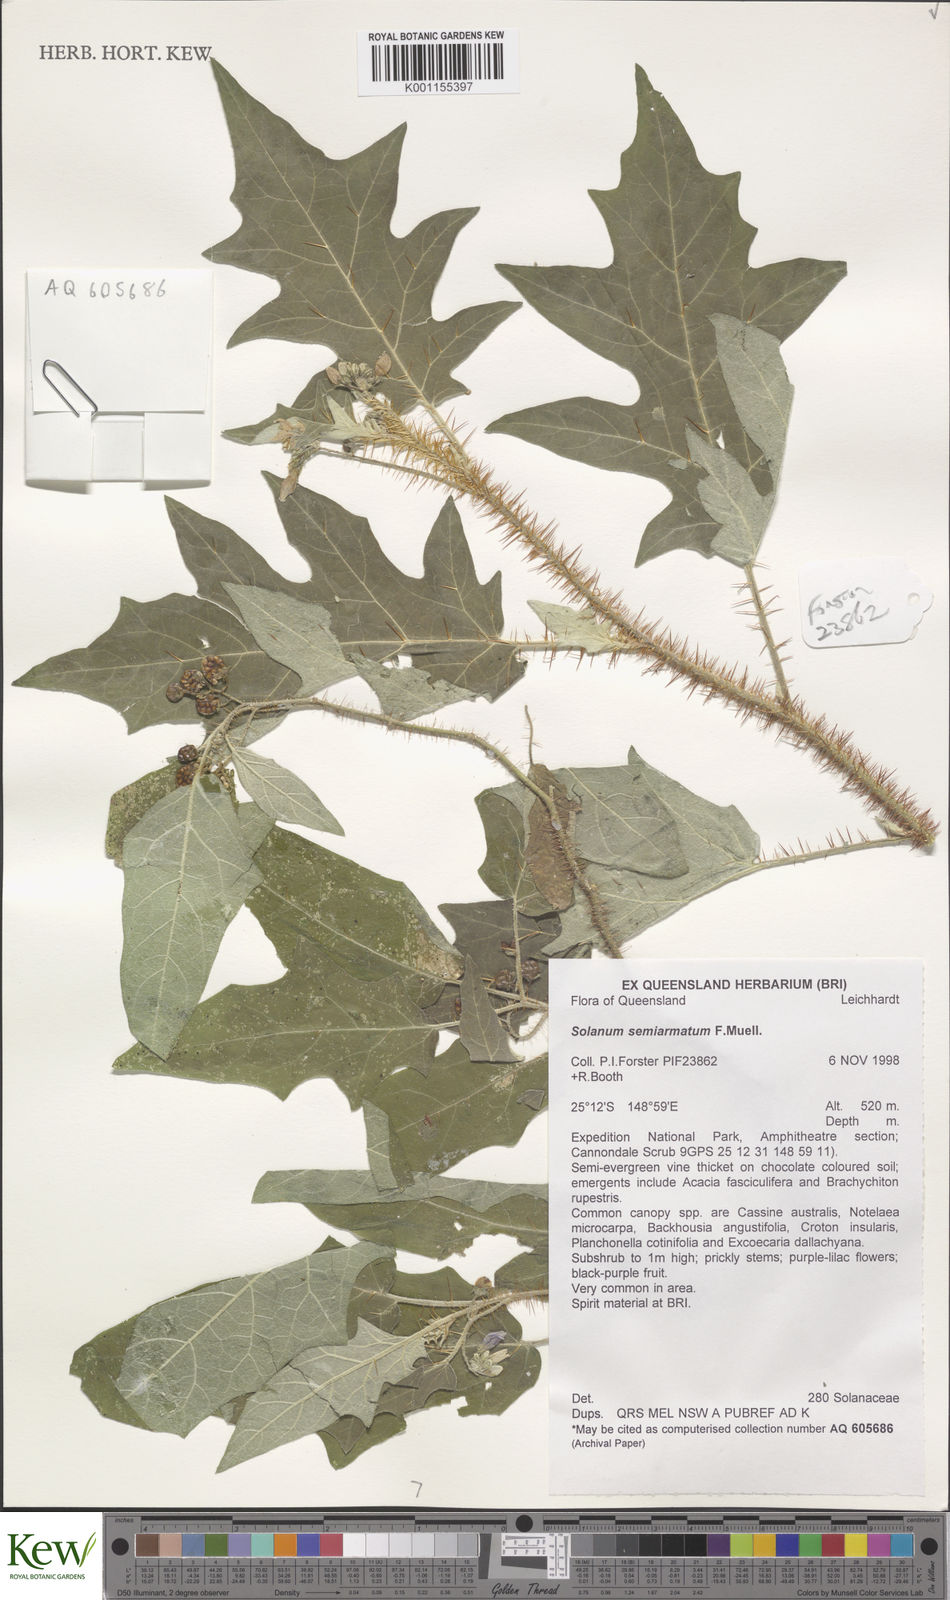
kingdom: Plantae
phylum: Tracheophyta
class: Magnoliopsida
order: Solanales
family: Solanaceae
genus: Solanum
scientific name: Solanum semiarmatum
